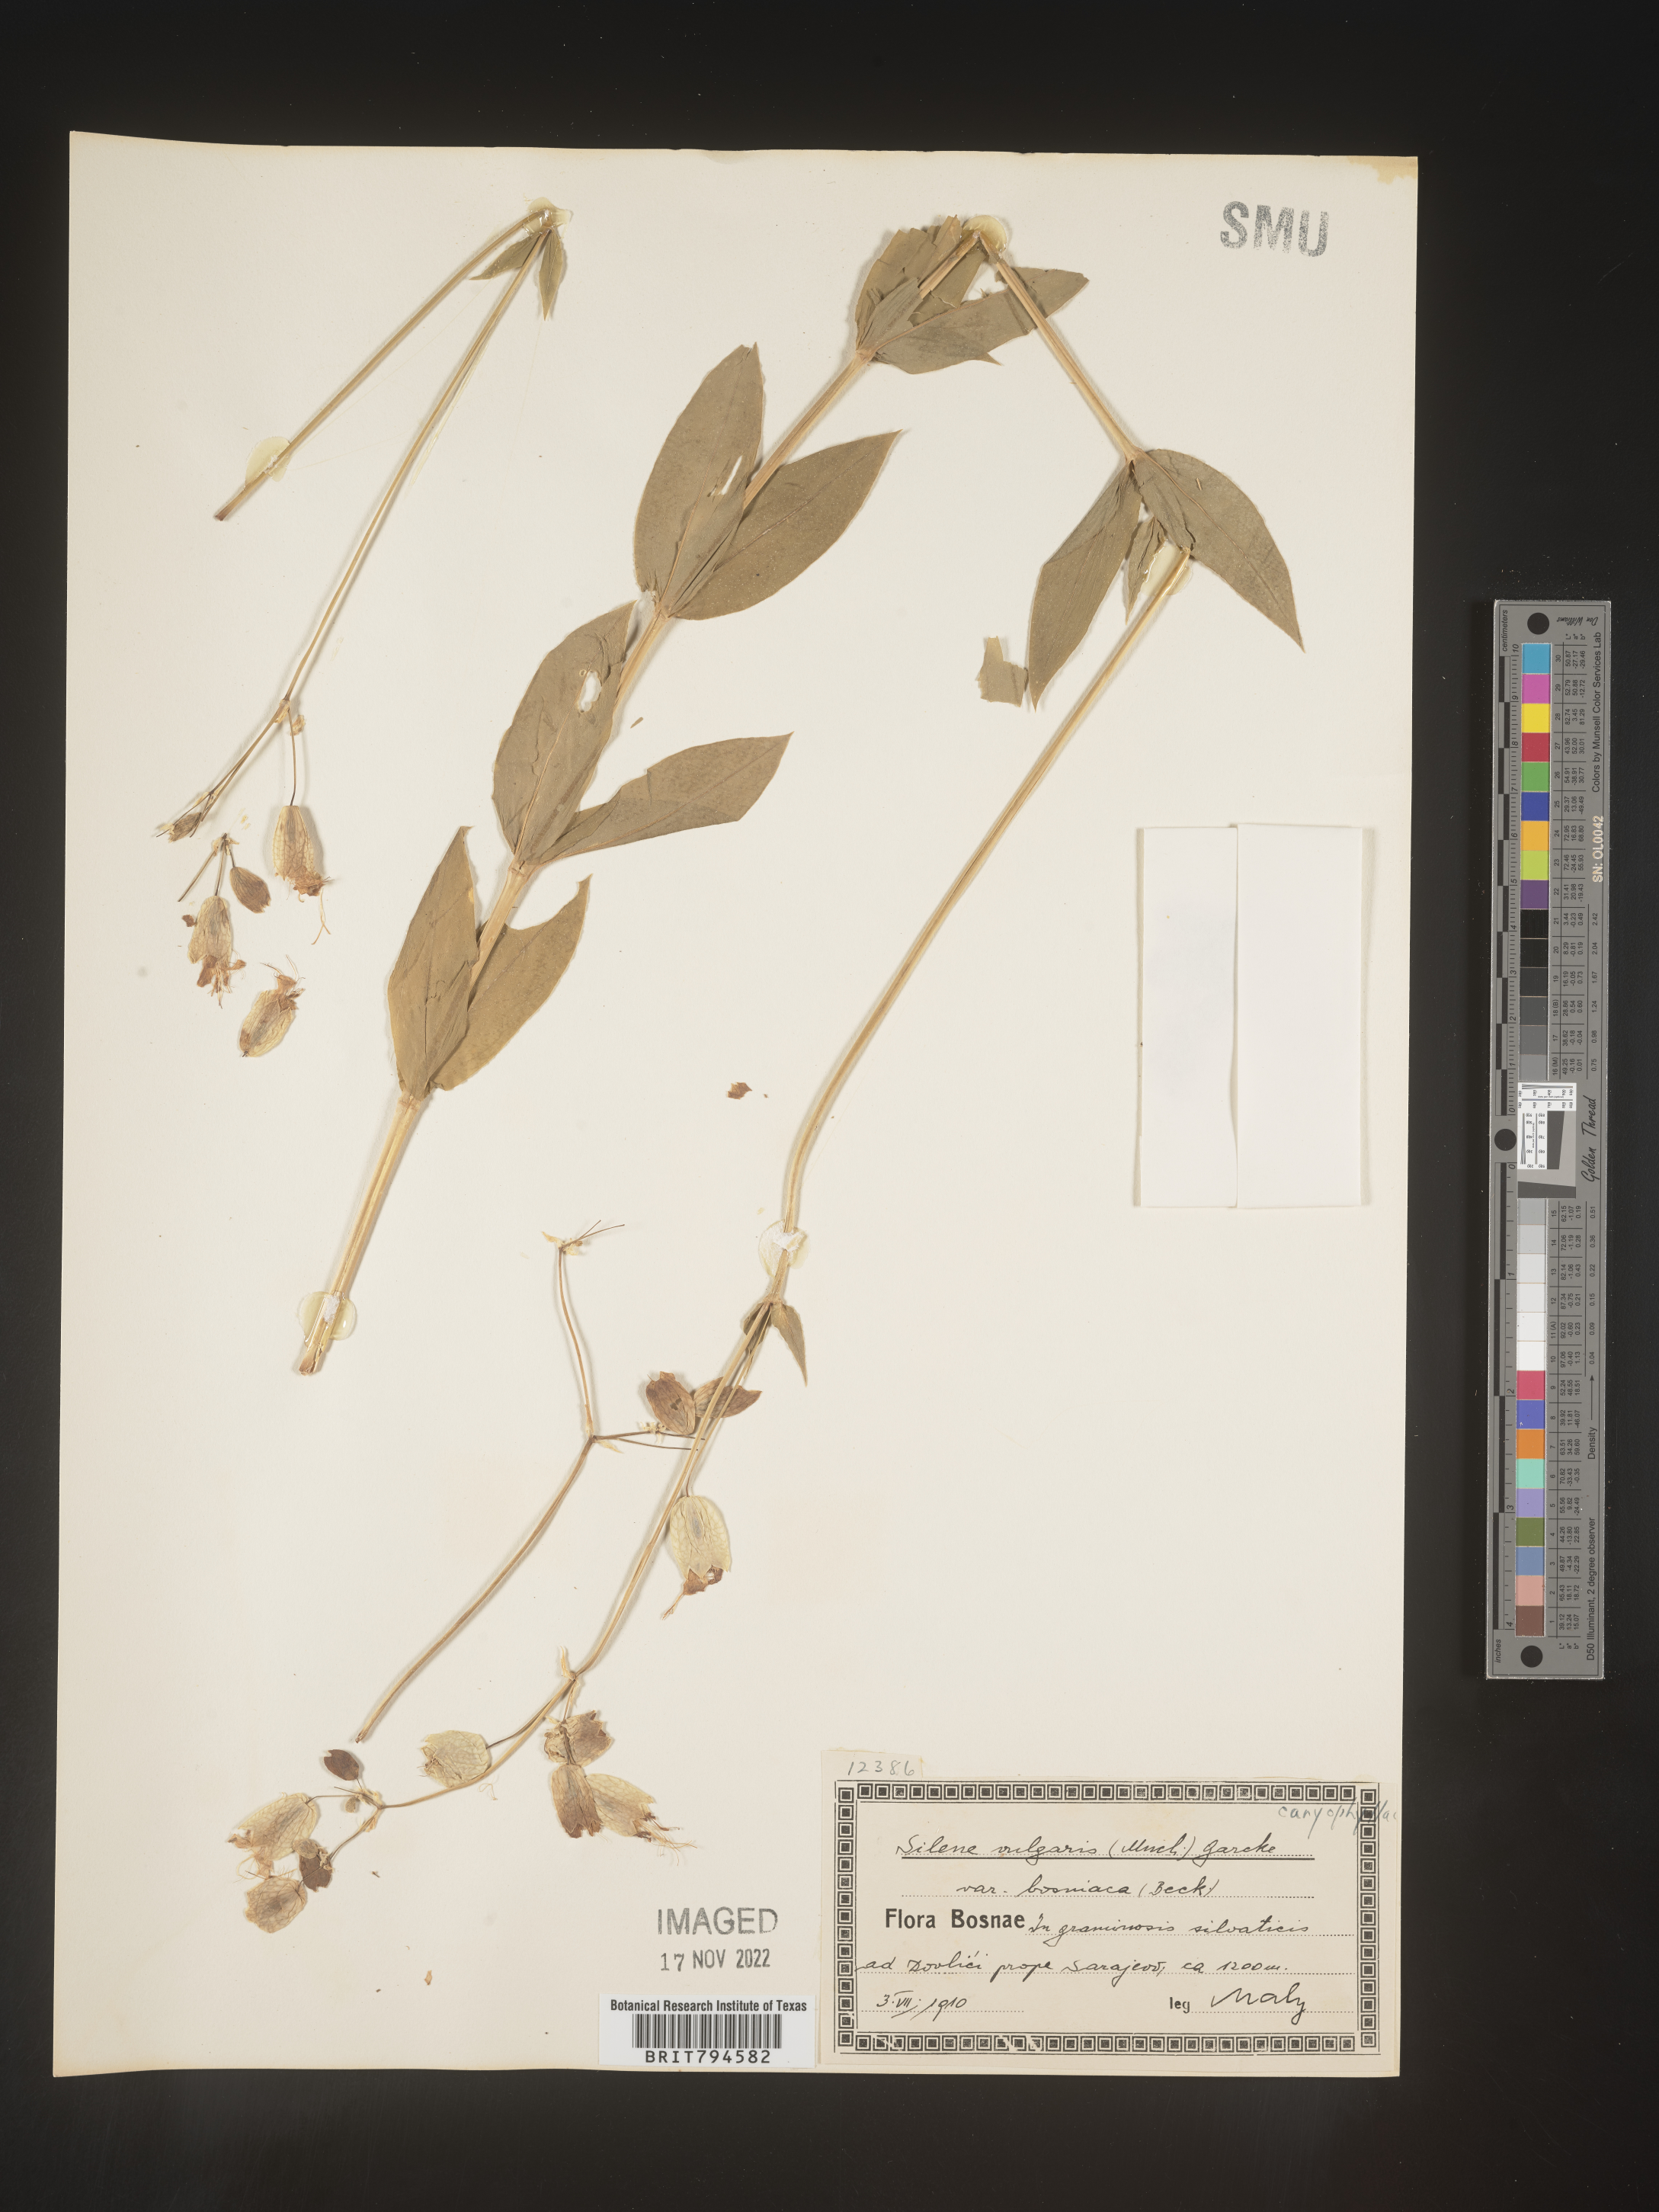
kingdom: Plantae
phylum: Tracheophyta
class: Magnoliopsida
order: Caryophyllales
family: Caryophyllaceae
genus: Silene
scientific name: Silene vulgaris
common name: Bladder campion
